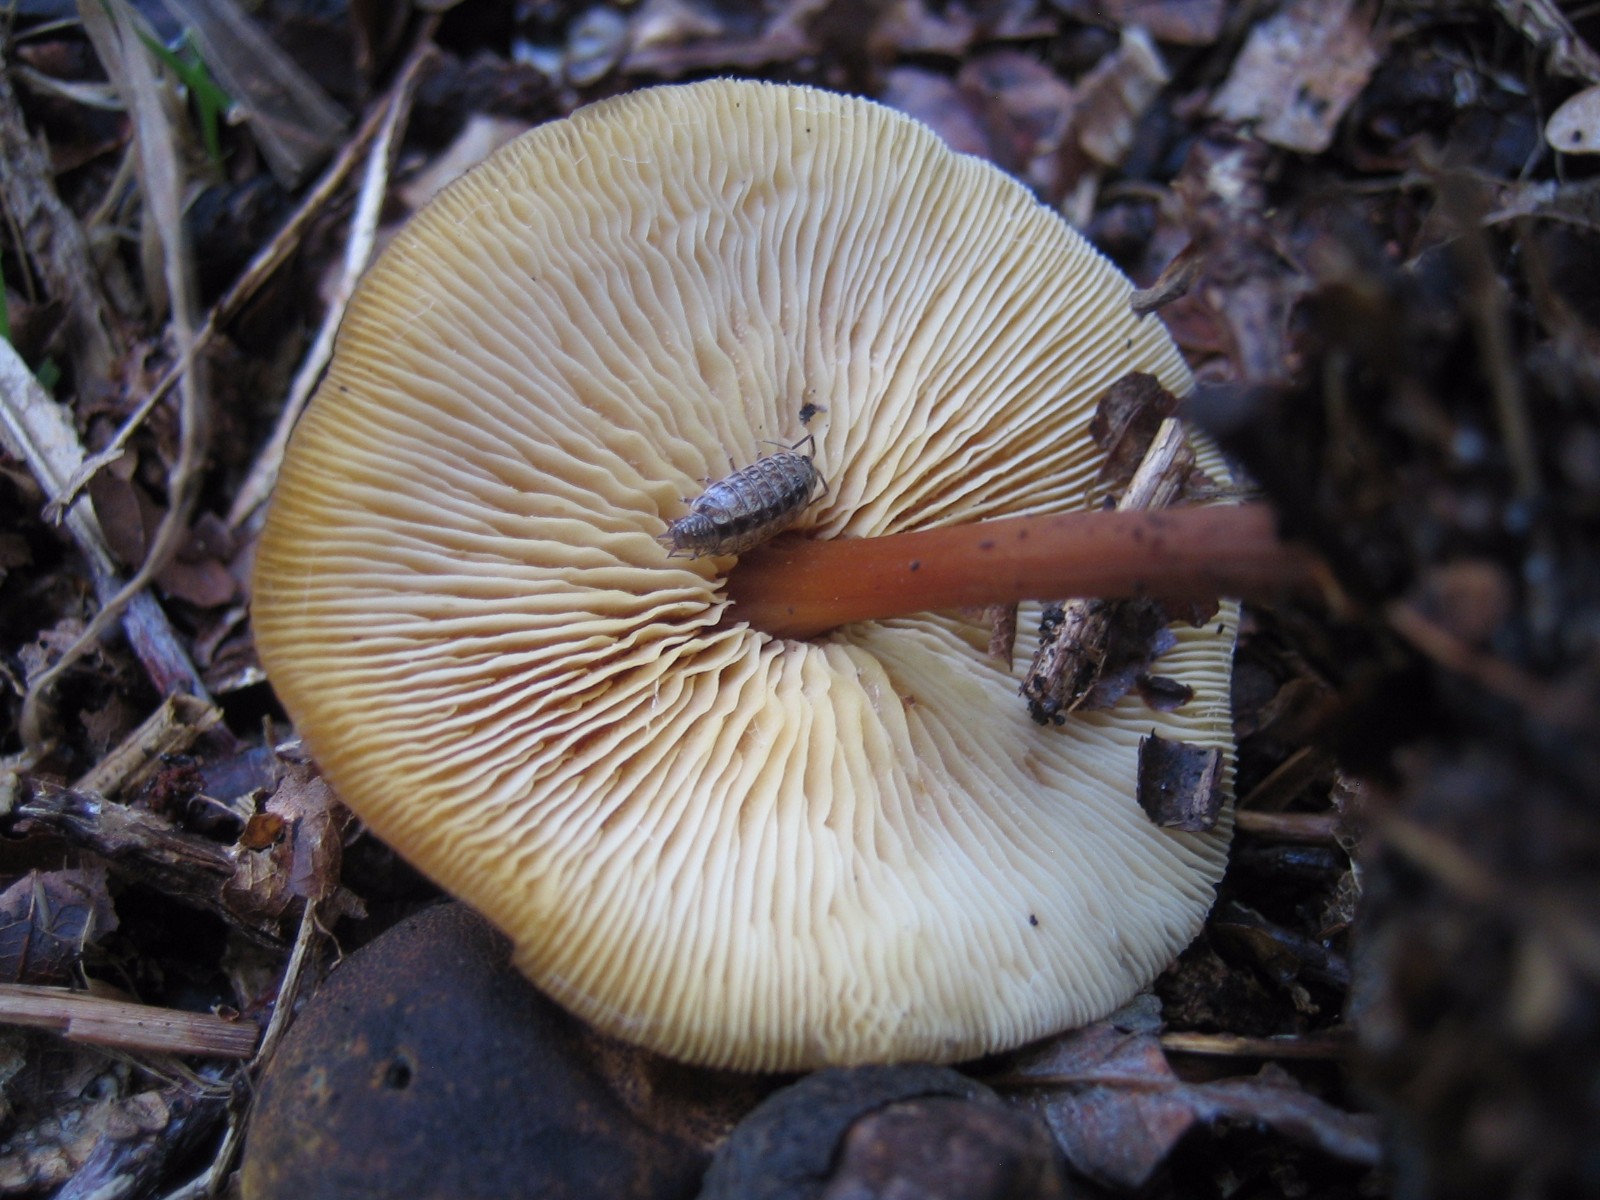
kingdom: Fungi
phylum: Basidiomycota
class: Agaricomycetes
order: Agaricales
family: Omphalotaceae
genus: Gymnopus
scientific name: Gymnopus dryophilus
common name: løv-fladhat
